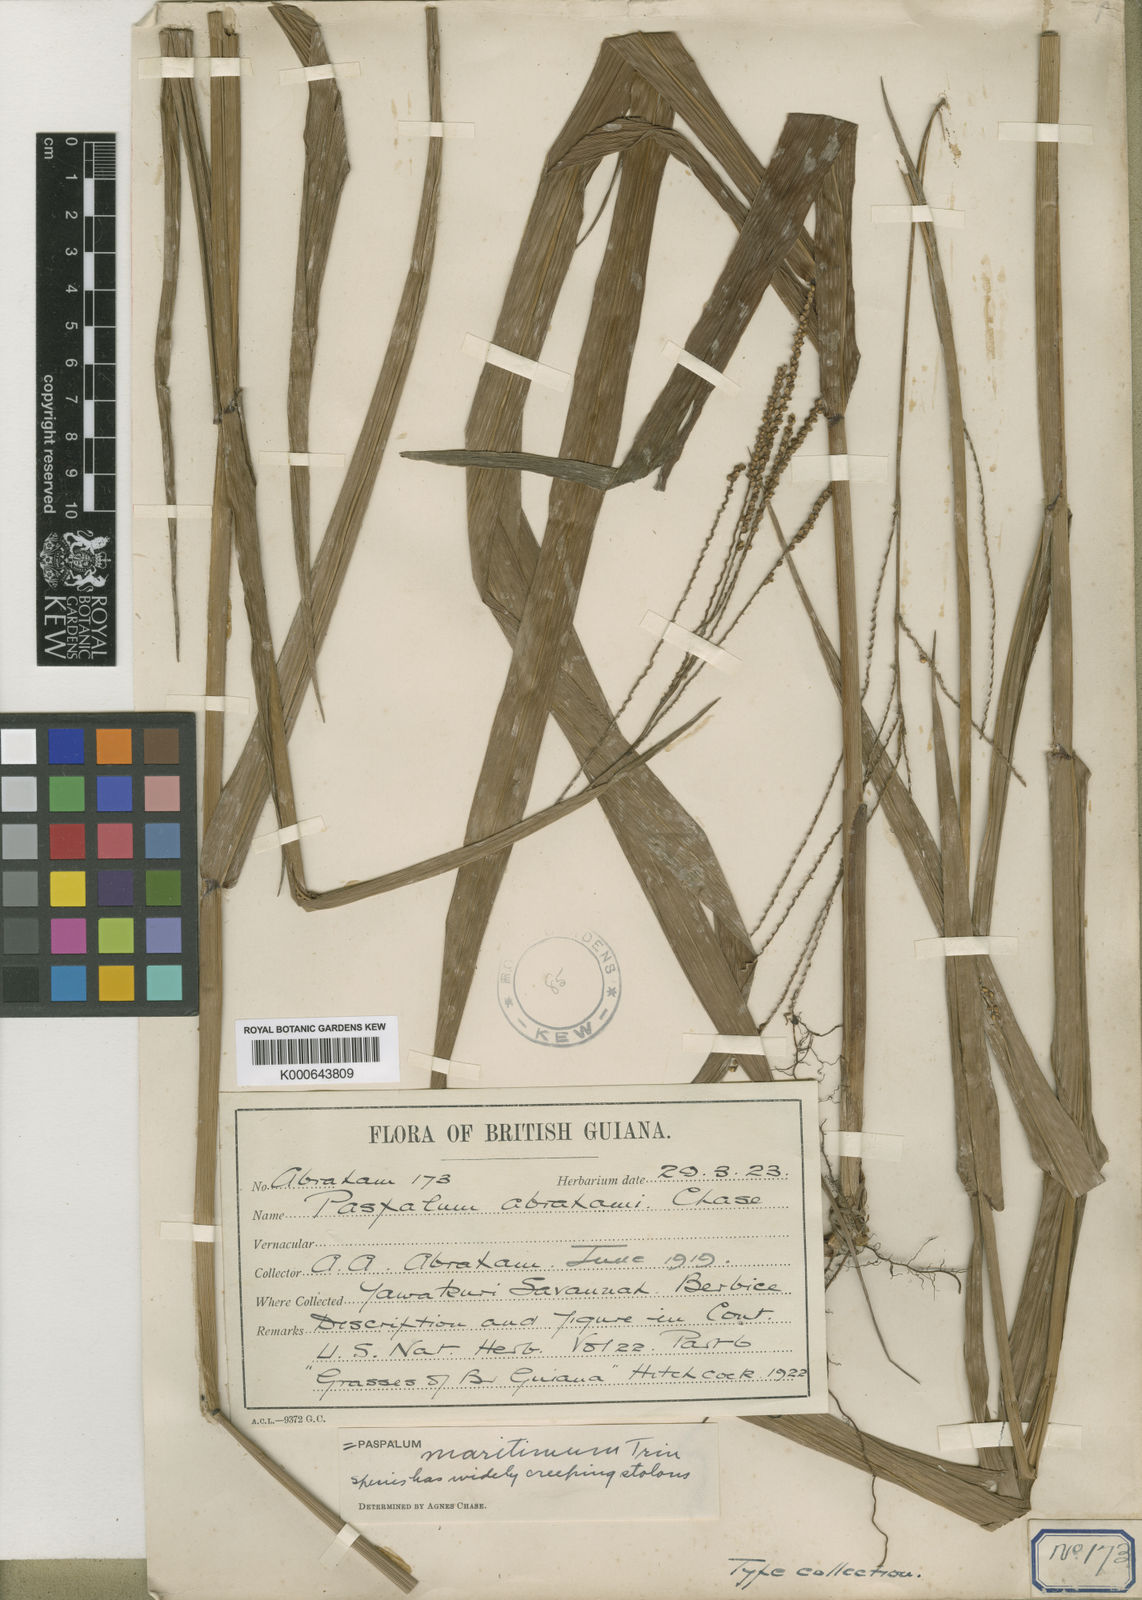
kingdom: Plantae
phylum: Tracheophyta
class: Liliopsida
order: Poales
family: Poaceae
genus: Paspalum
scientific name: Paspalum maritimum
